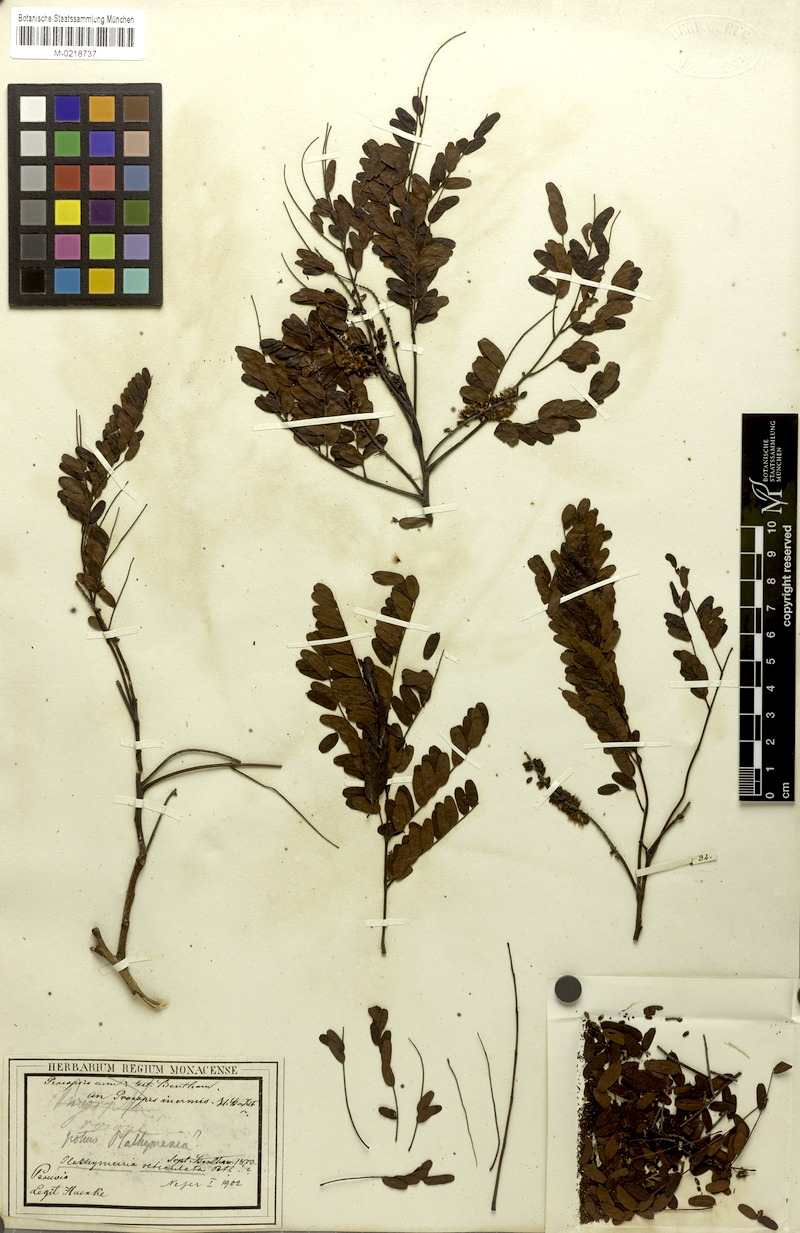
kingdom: Plantae
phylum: Tracheophyta
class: Magnoliopsida
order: Fabales
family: Fabaceae
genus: Plathymenia
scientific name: Plathymenia reticulata
